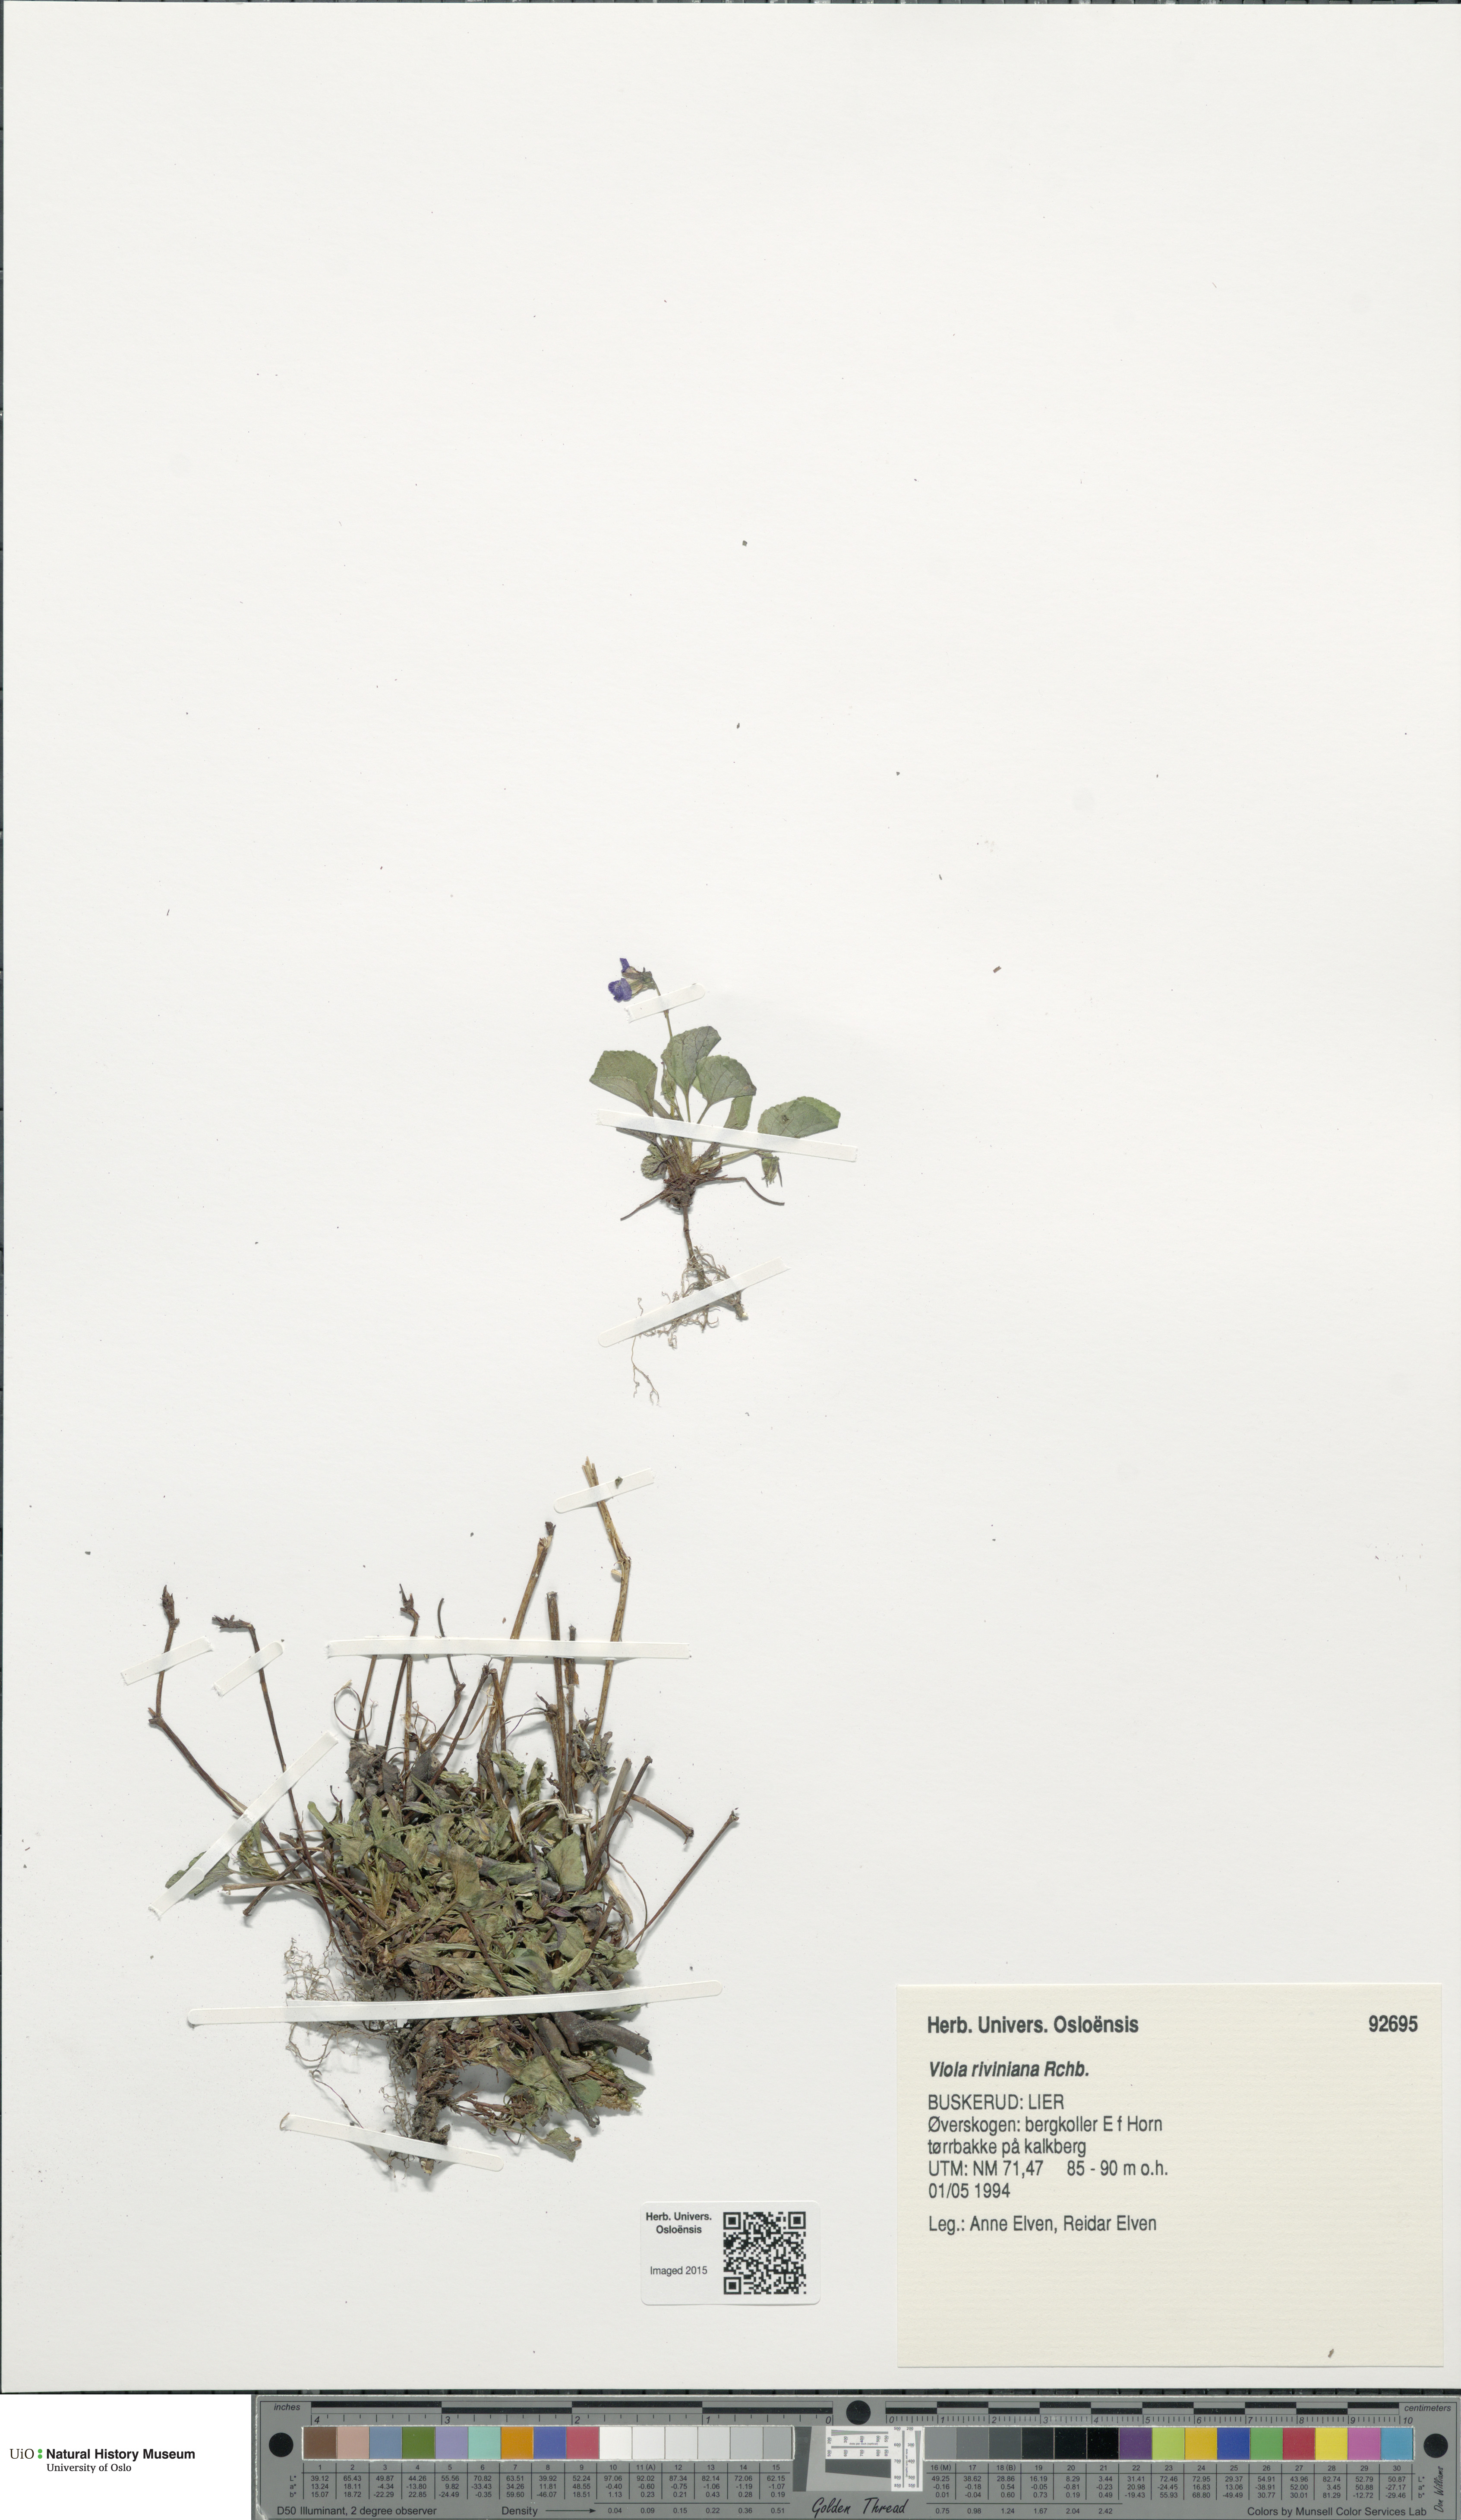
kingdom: Plantae
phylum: Tracheophyta
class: Magnoliopsida
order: Malpighiales
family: Violaceae
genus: Viola
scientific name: Viola riviniana
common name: Common dog-violet
